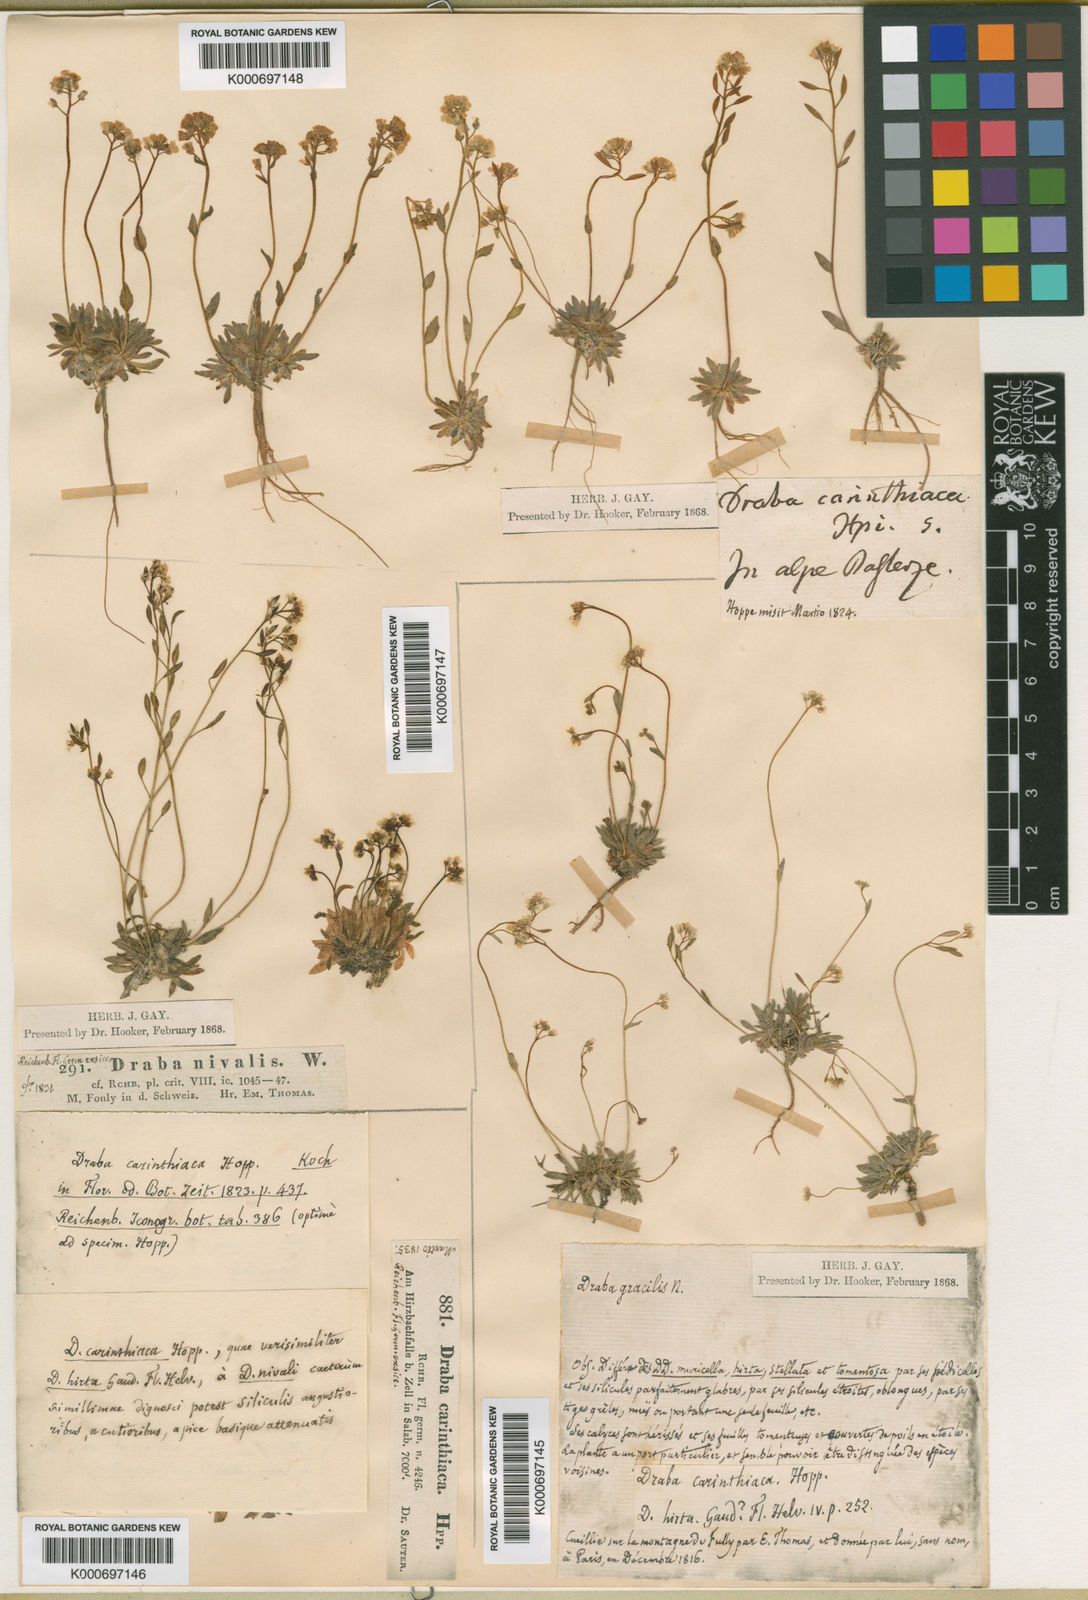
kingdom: Plantae
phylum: Tracheophyta
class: Magnoliopsida
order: Brassicales
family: Brassicaceae
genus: Draba
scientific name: Draba siliquosa
